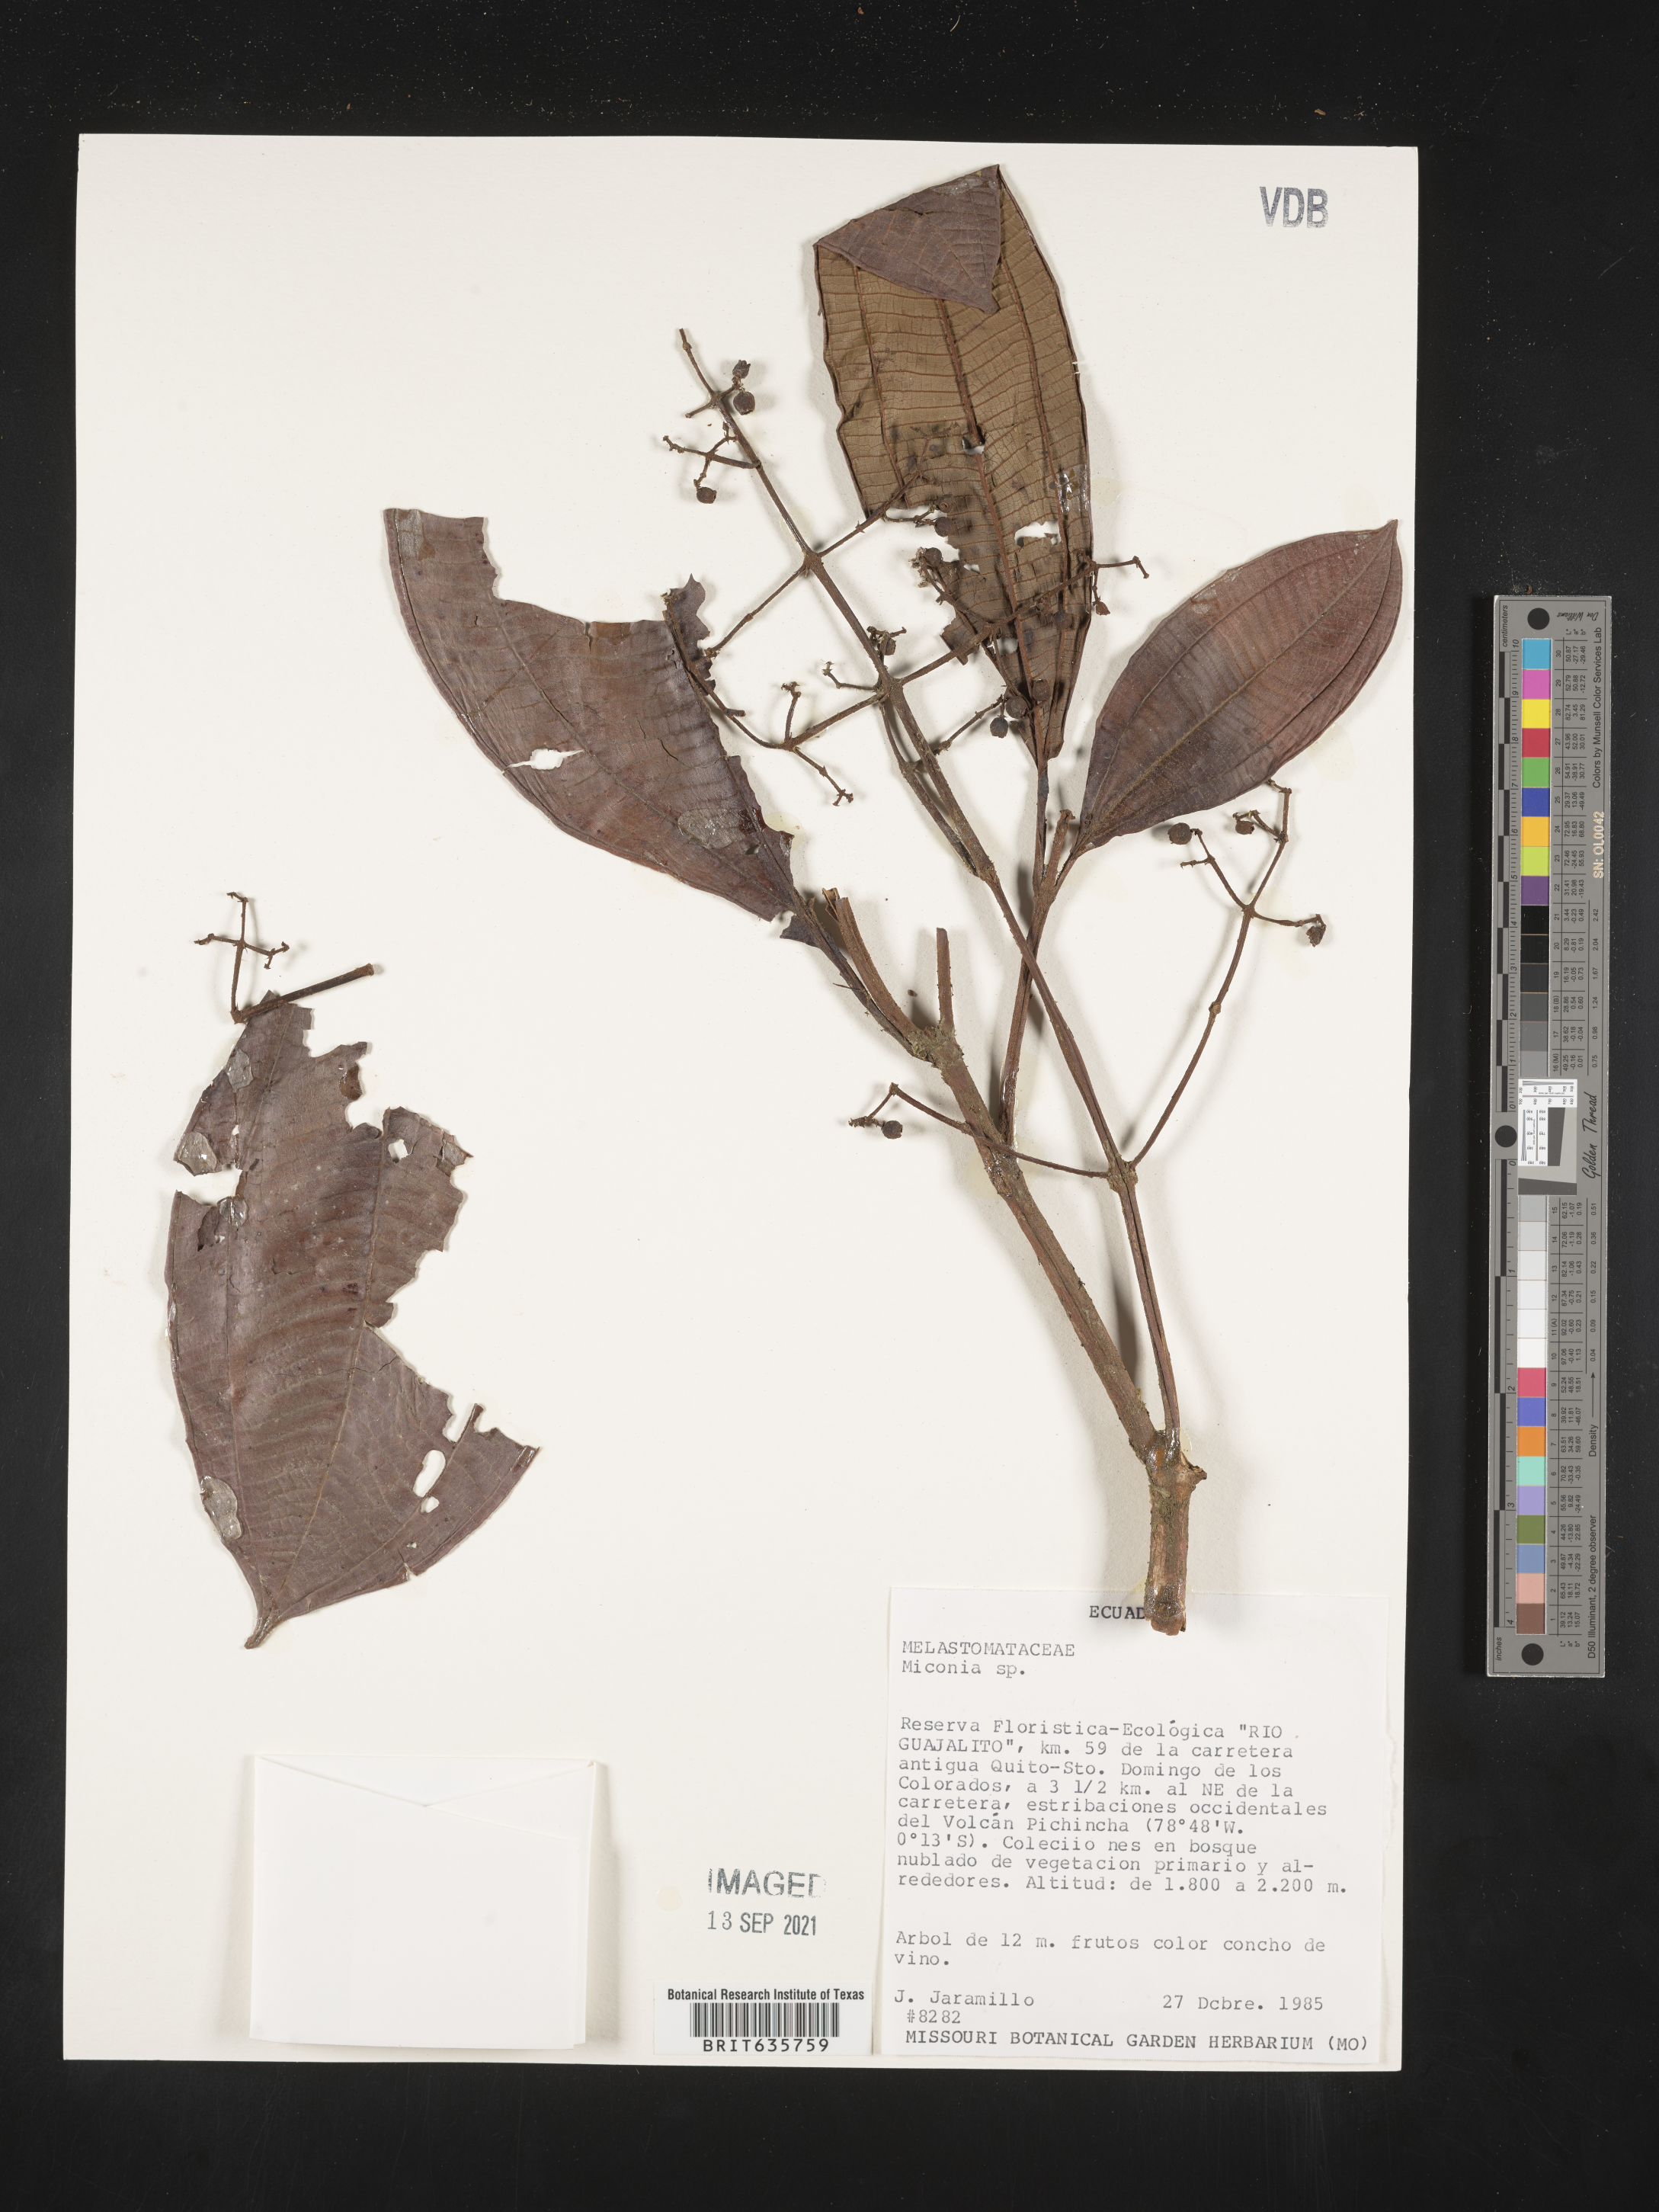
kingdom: Plantae
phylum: Tracheophyta
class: Magnoliopsida
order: Myrtales
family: Melastomataceae
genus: Miconia
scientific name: Miconia
